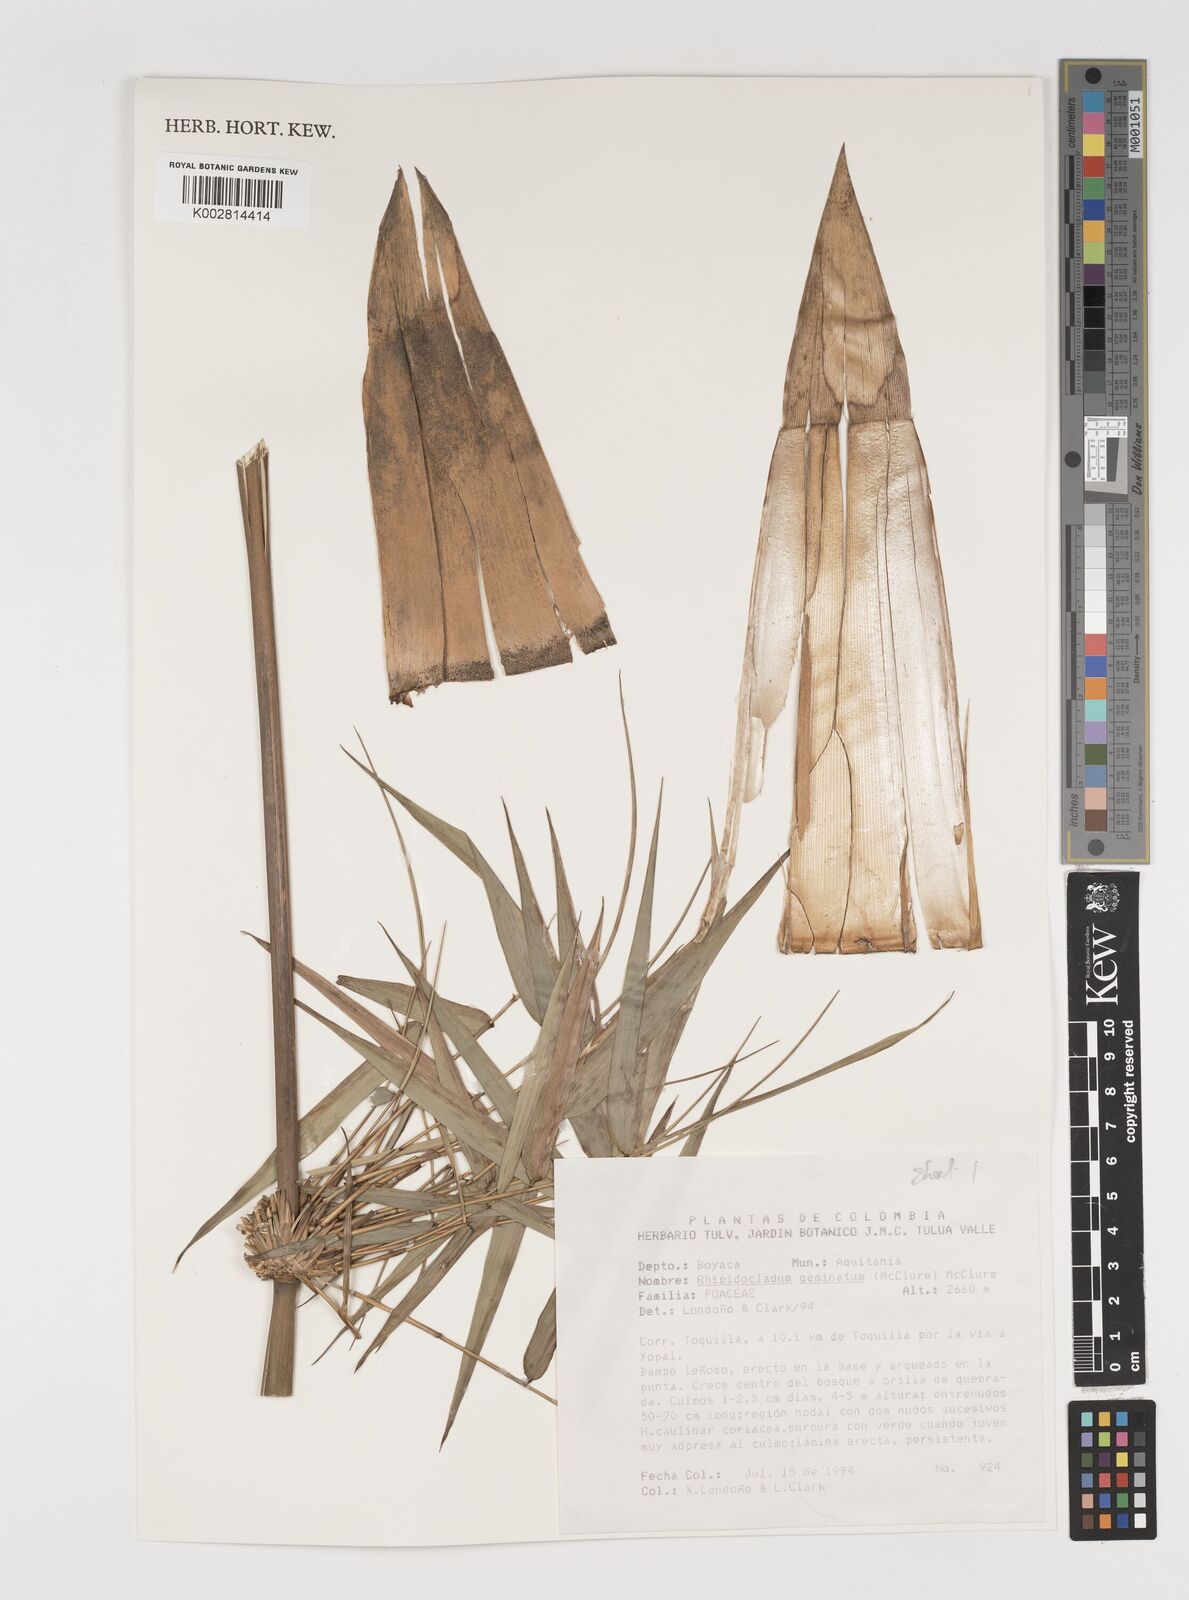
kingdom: Plantae
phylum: Tracheophyta
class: Liliopsida
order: Poales
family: Poaceae
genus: Didymogonyx
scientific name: Didymogonyx geminatum
